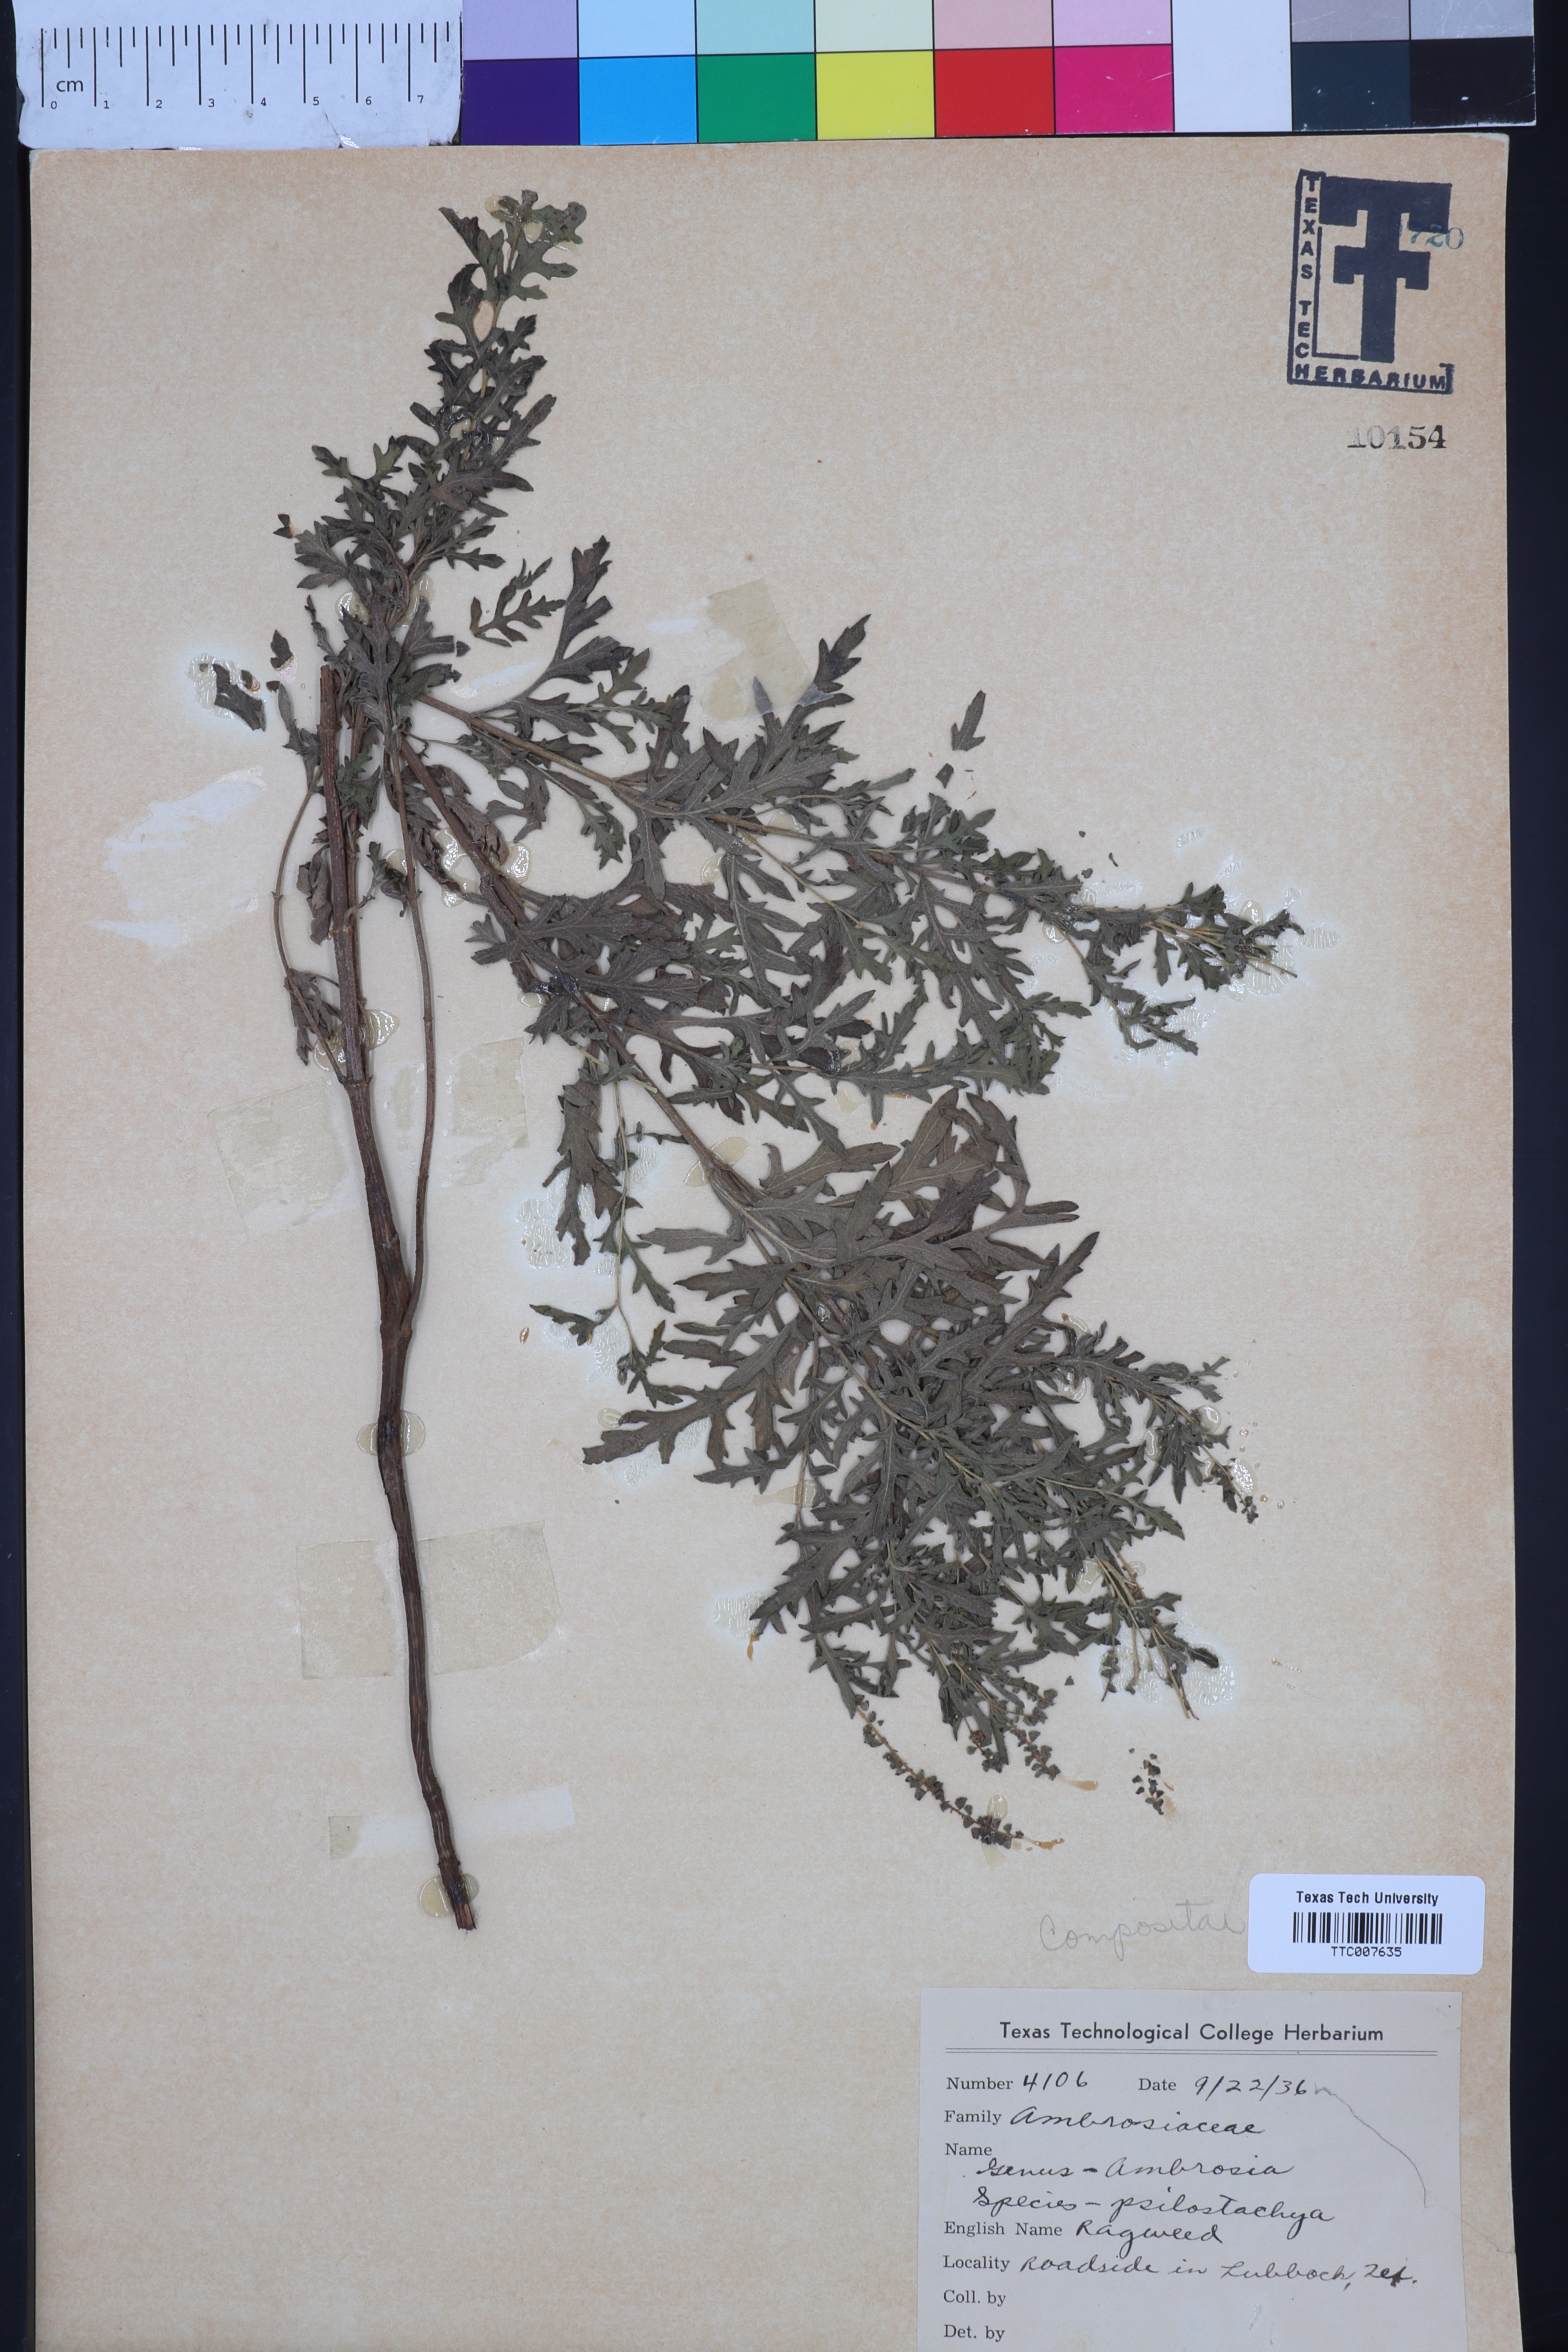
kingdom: Plantae
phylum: Tracheophyta
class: Magnoliopsida
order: Asterales
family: Asteraceae
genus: Ambrosia
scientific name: Ambrosia psilostachya
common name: Perennial ragweed
